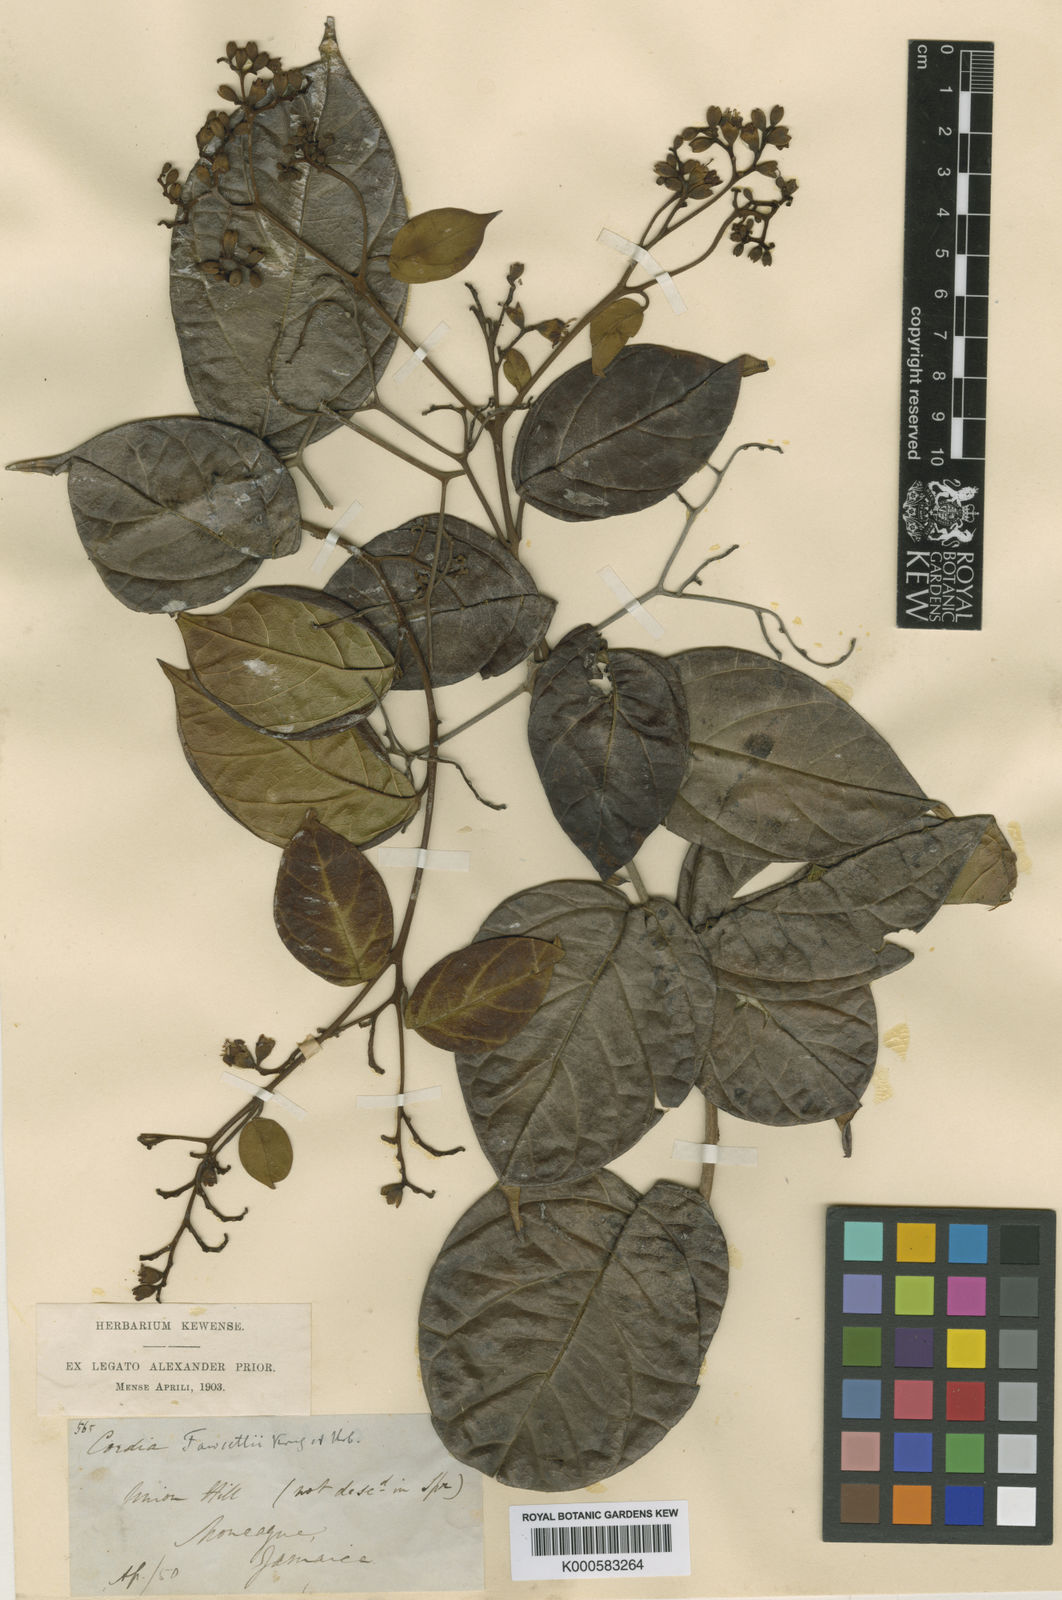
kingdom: Plantae
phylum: Tracheophyta
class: Magnoliopsida
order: Boraginales
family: Cordiaceae
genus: Cordia
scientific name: Cordia elliptica
